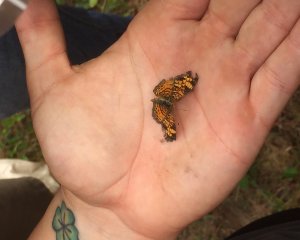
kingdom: Animalia
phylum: Arthropoda
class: Insecta
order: Lepidoptera
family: Nymphalidae
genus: Phyciodes
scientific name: Phyciodes tharos
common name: Pearl Crescent
